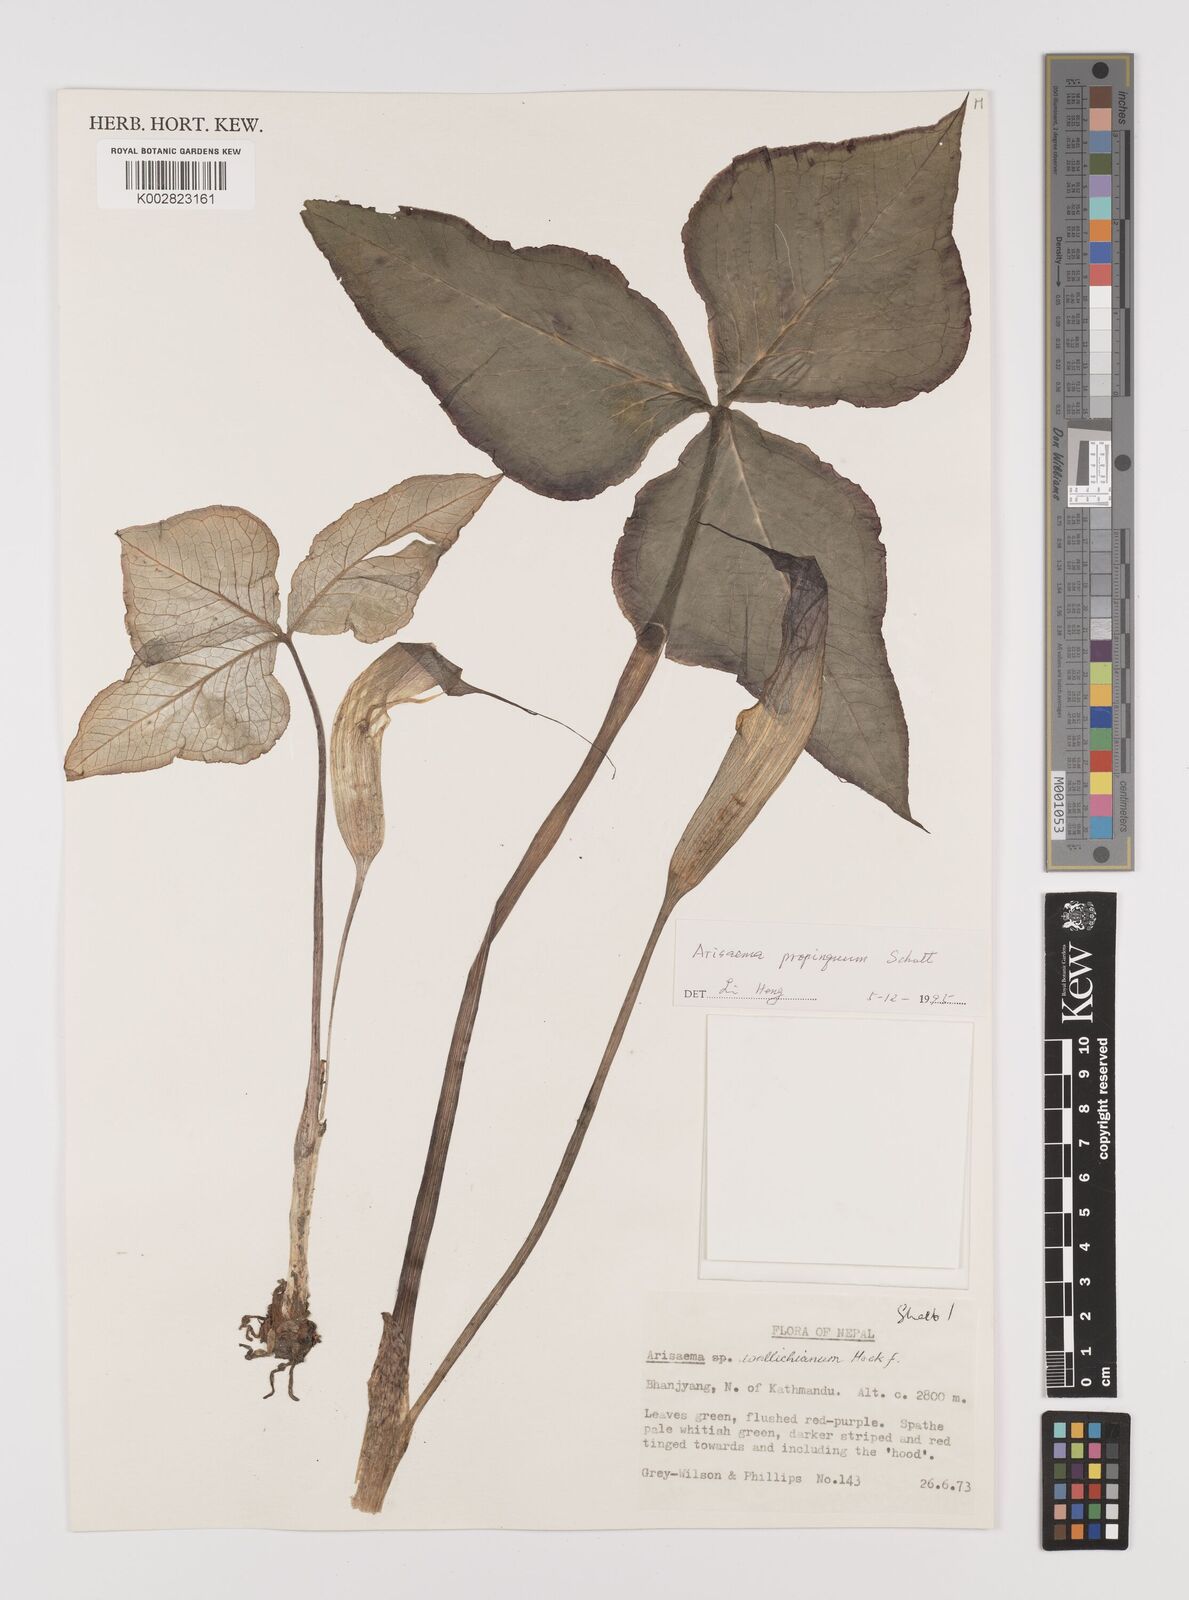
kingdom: Plantae
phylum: Tracheophyta
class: Liliopsida
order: Alismatales
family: Araceae
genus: Arisaema
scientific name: Arisaema propinquum
